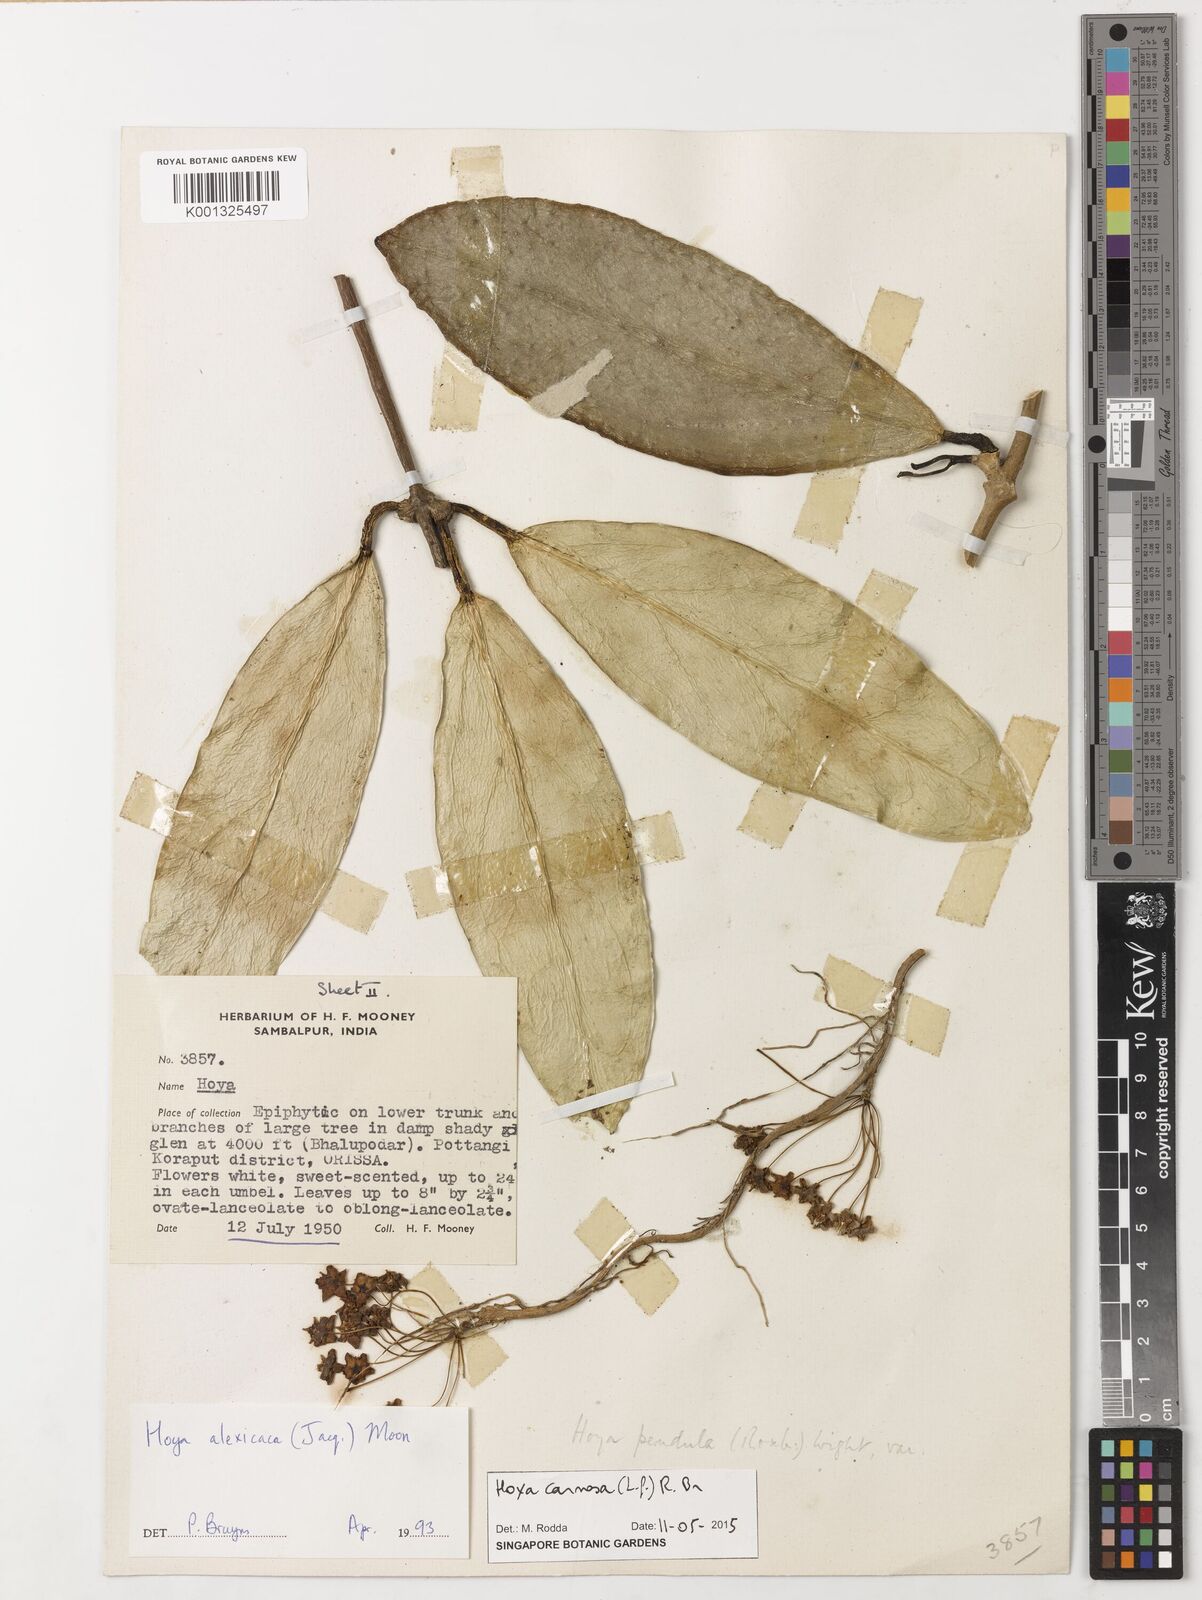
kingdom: Plantae
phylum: Tracheophyta
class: Magnoliopsida
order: Gentianales
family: Apocynaceae
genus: Hoya
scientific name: Hoya carnosa
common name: Honeyplant
